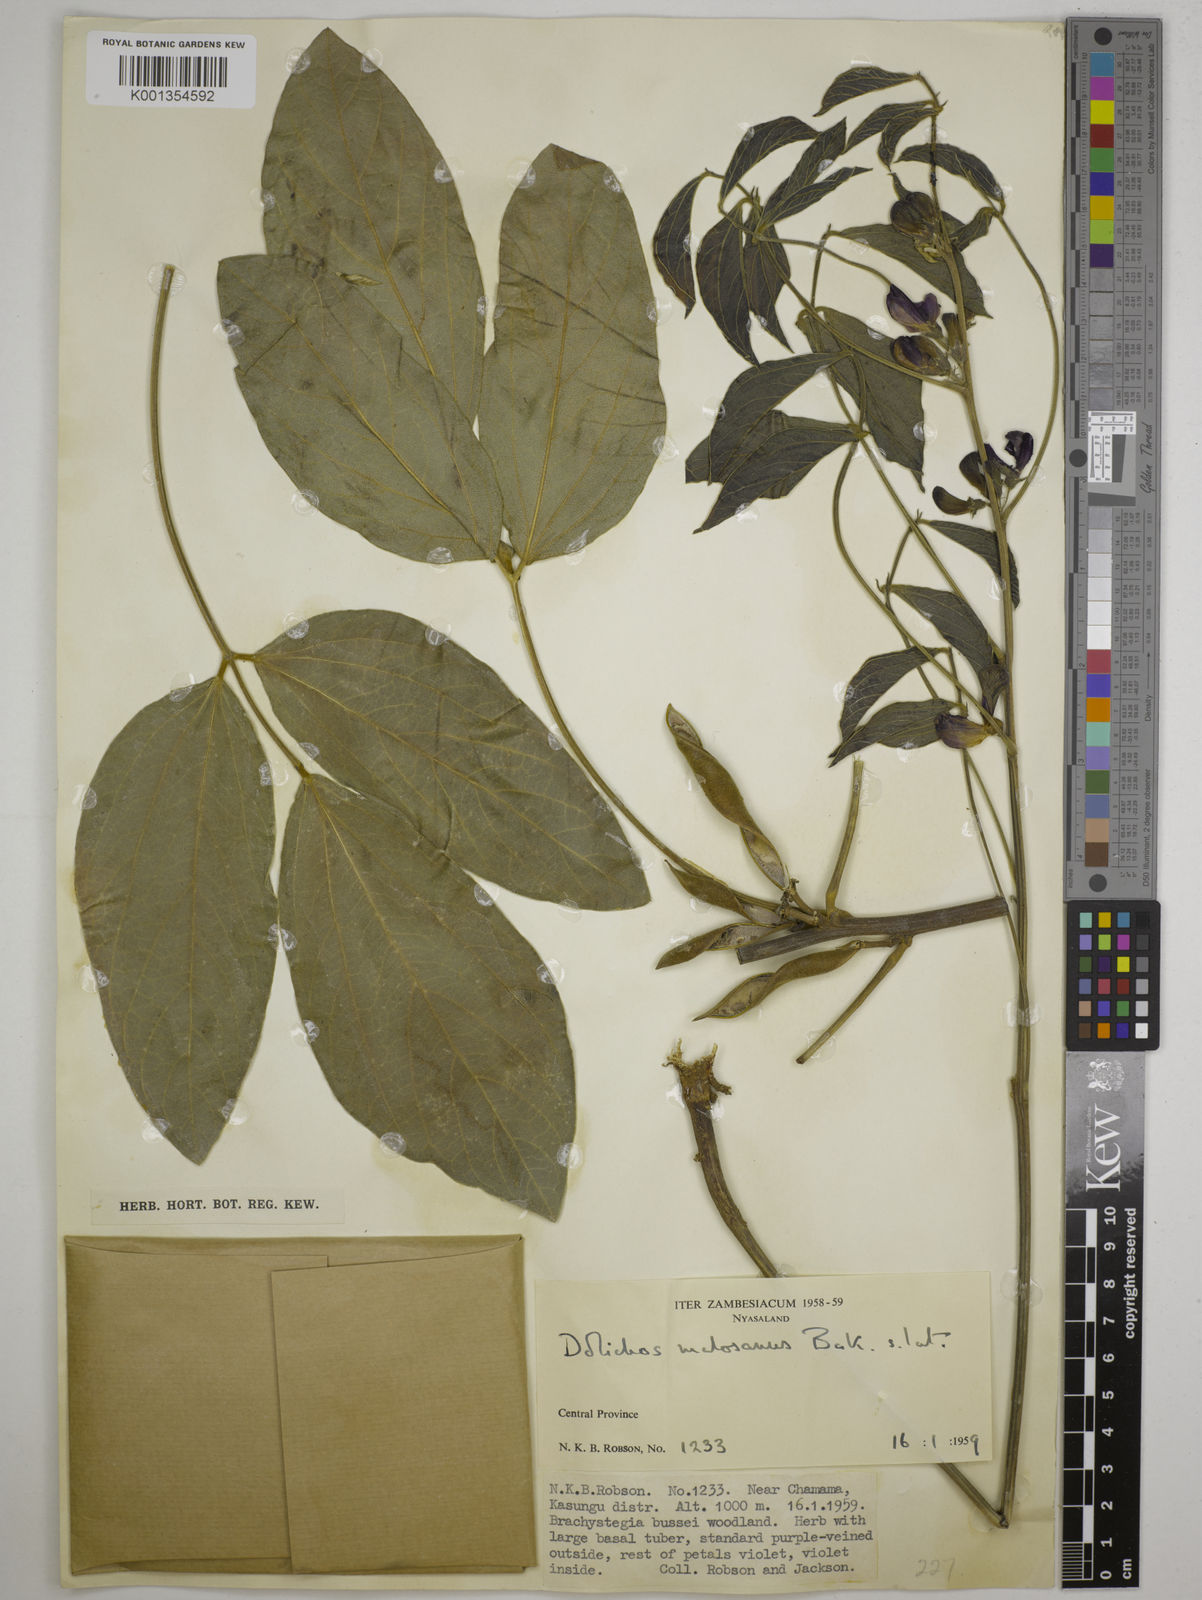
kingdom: Plantae
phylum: Tracheophyta
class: Magnoliopsida
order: Fabales
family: Fabaceae
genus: Dolichos
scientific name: Dolichos kilimandscharicus
